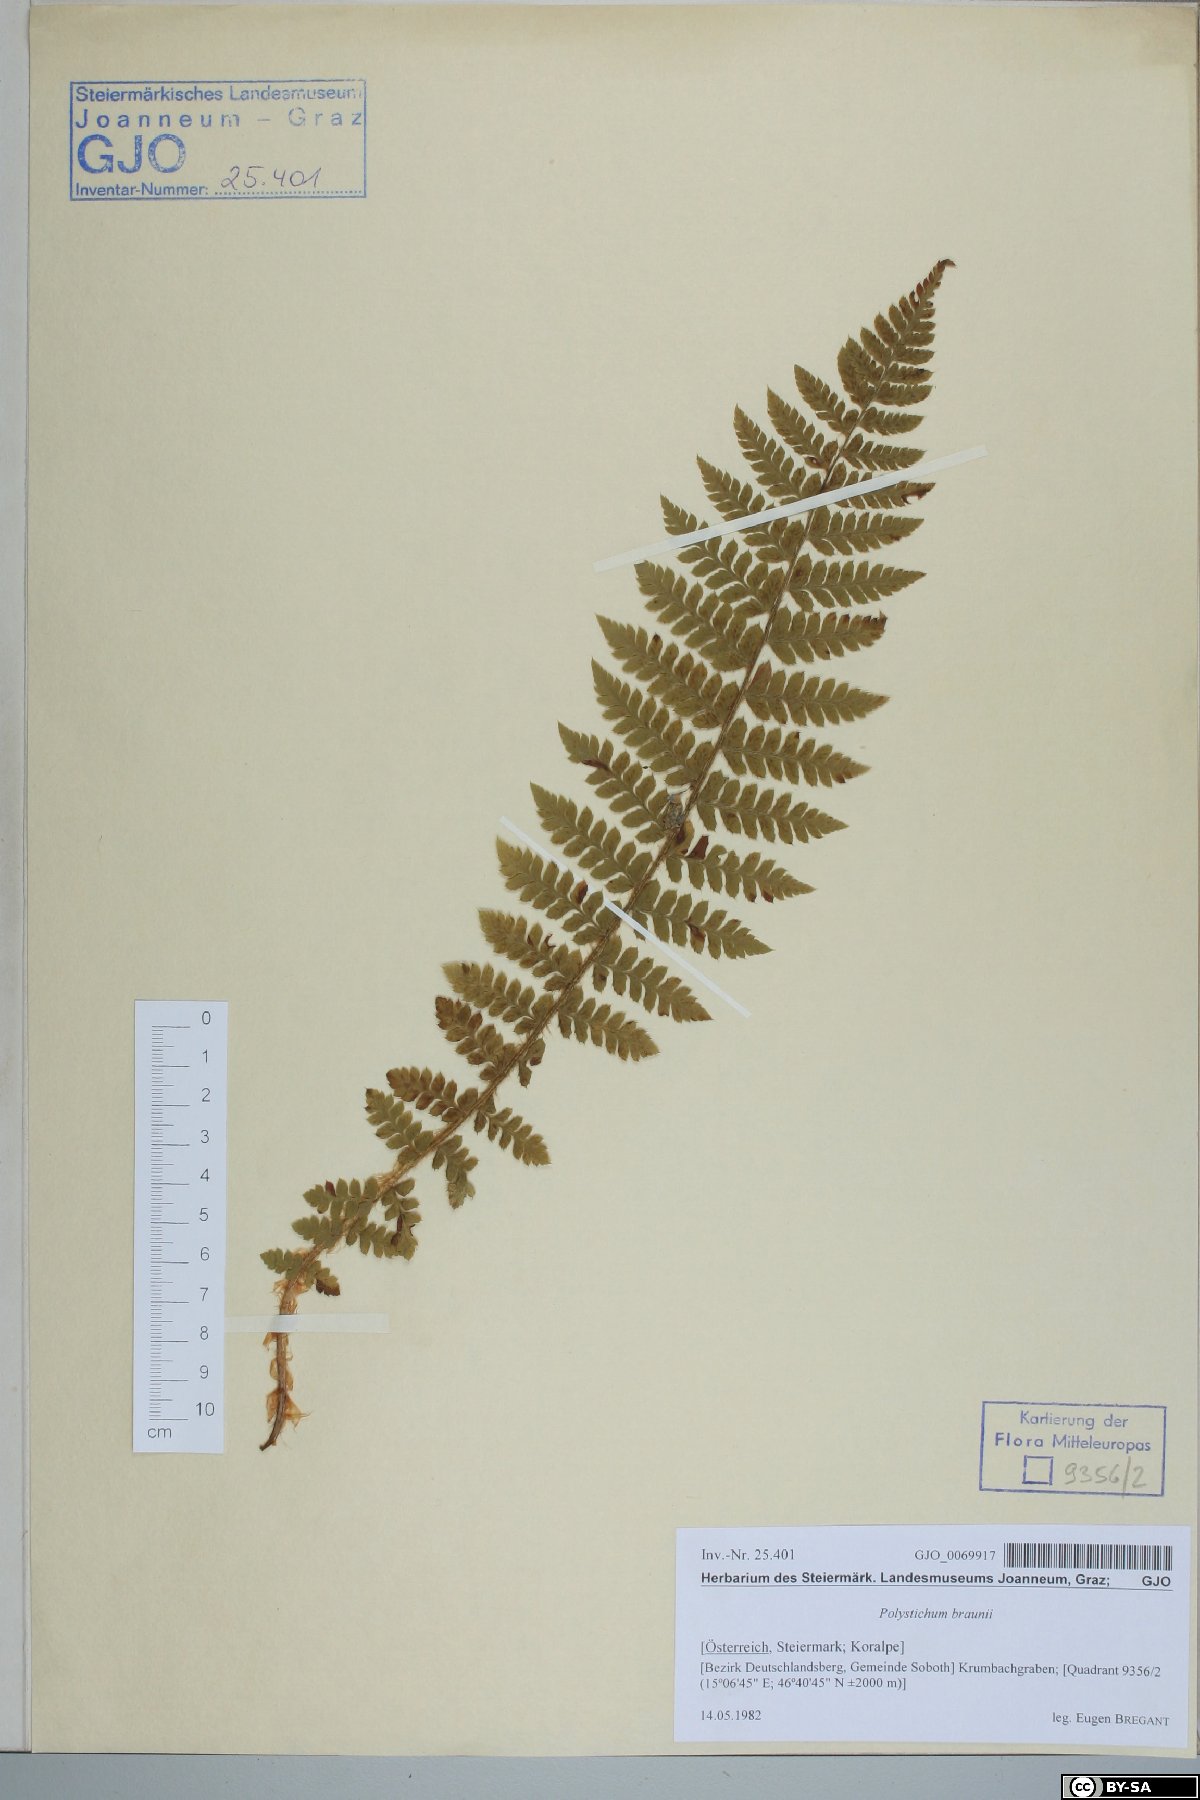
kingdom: Plantae
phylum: Tracheophyta
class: Polypodiopsida
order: Polypodiales
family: Dryopteridaceae
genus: Polystichum
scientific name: Polystichum braunii
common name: Braun's holly fern
